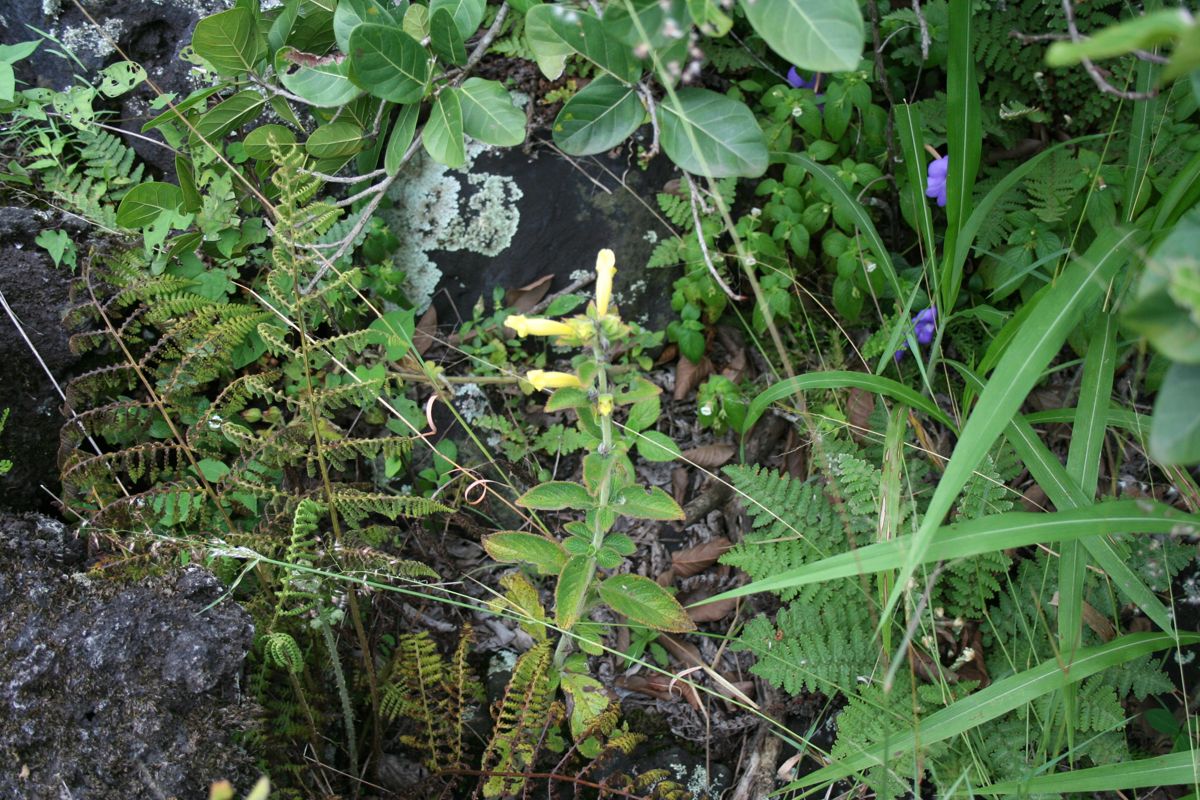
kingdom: Plantae
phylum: Tracheophyta
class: Magnoliopsida
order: Lamiales
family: Gesneriaceae
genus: Sinningia
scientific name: Sinningia incarnata
